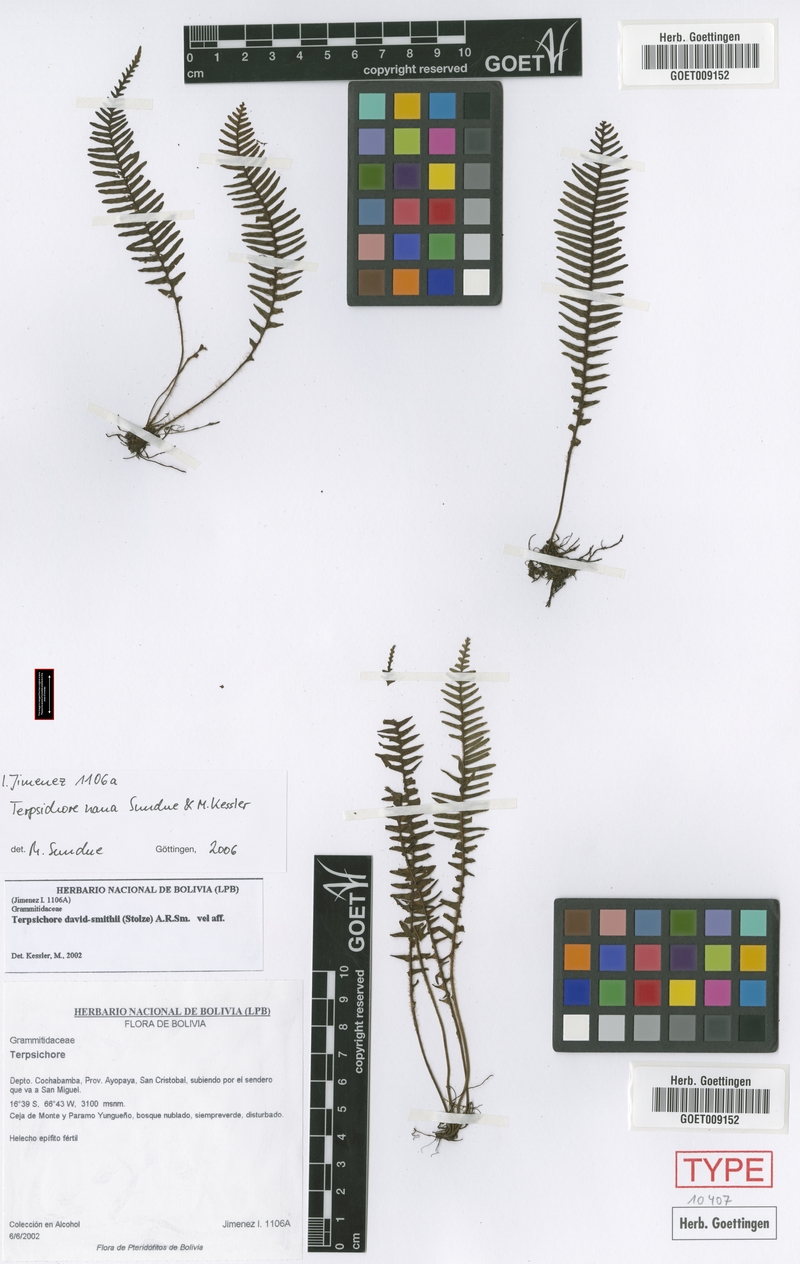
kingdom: Plantae
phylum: Tracheophyta
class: Polypodiopsida
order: Polypodiales
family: Polypodiaceae
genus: Ascogrammitis
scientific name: Ascogrammitis nana
